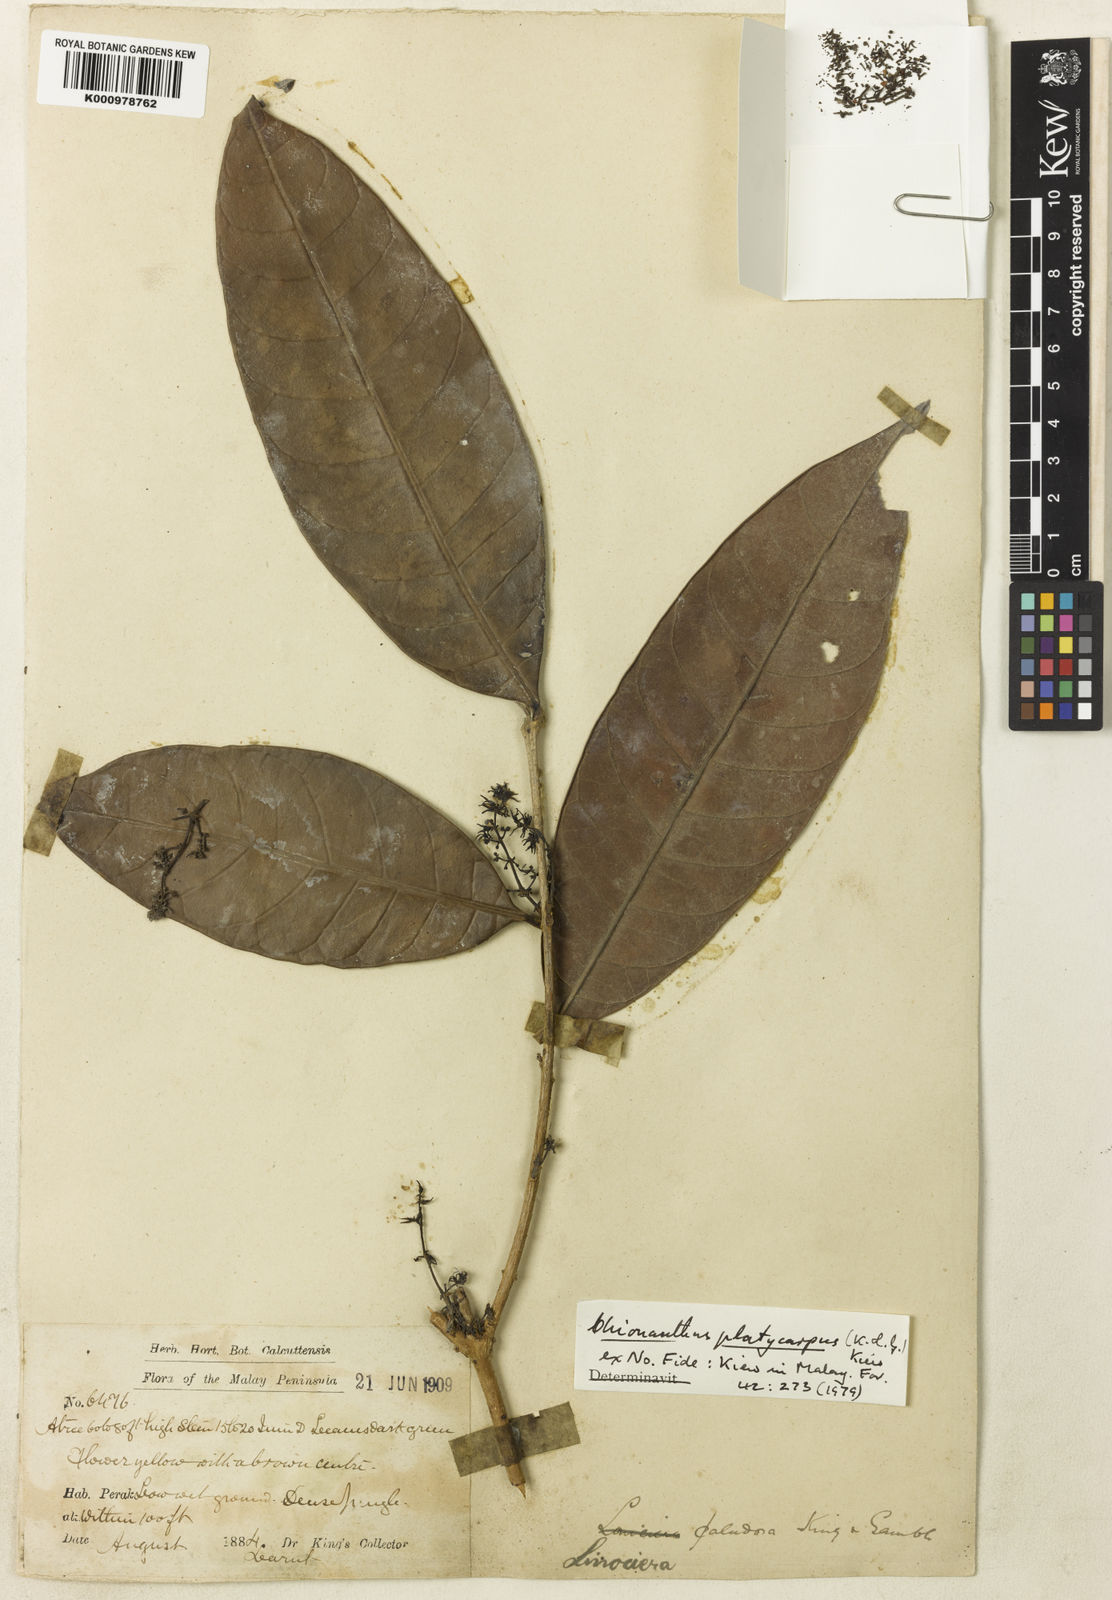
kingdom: Plantae
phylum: Tracheophyta
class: Magnoliopsida
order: Lamiales
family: Oleaceae
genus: Chionanthus
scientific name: Chionanthus
